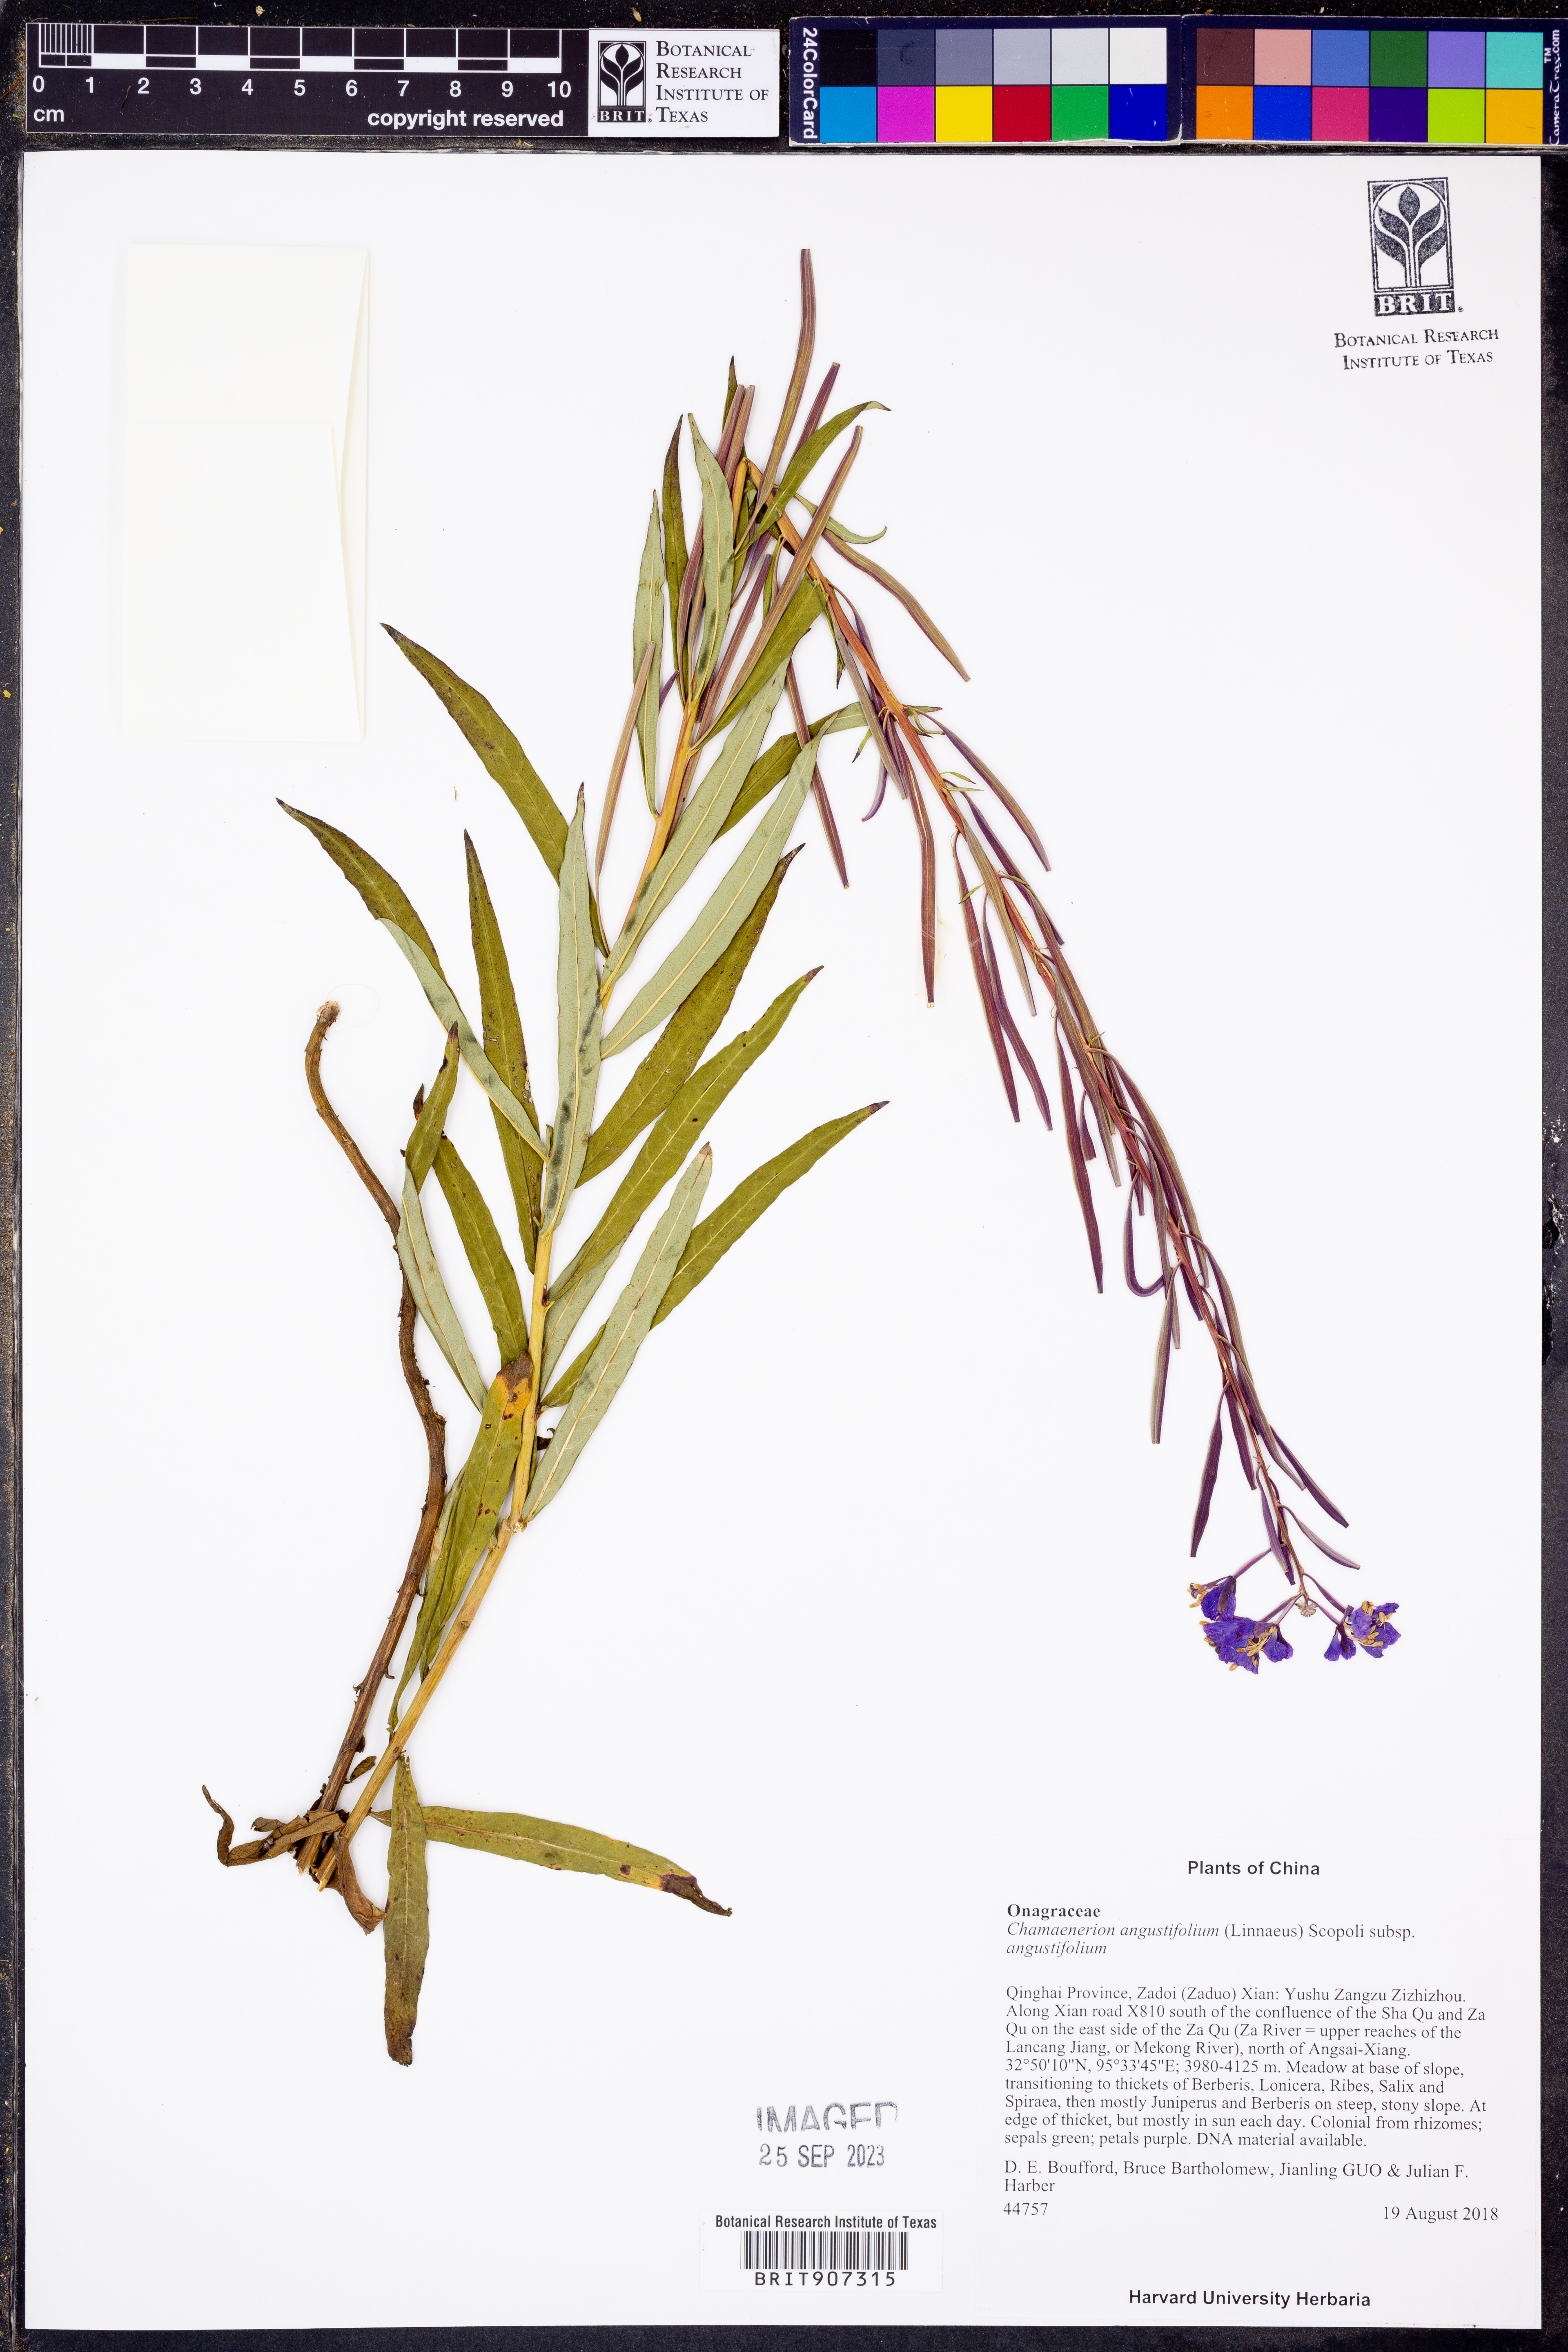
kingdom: Plantae
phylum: Tracheophyta
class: Magnoliopsida
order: Myrtales
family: Onagraceae
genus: Chamaenerion
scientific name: Chamaenerion angustifolium
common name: Fireweed
